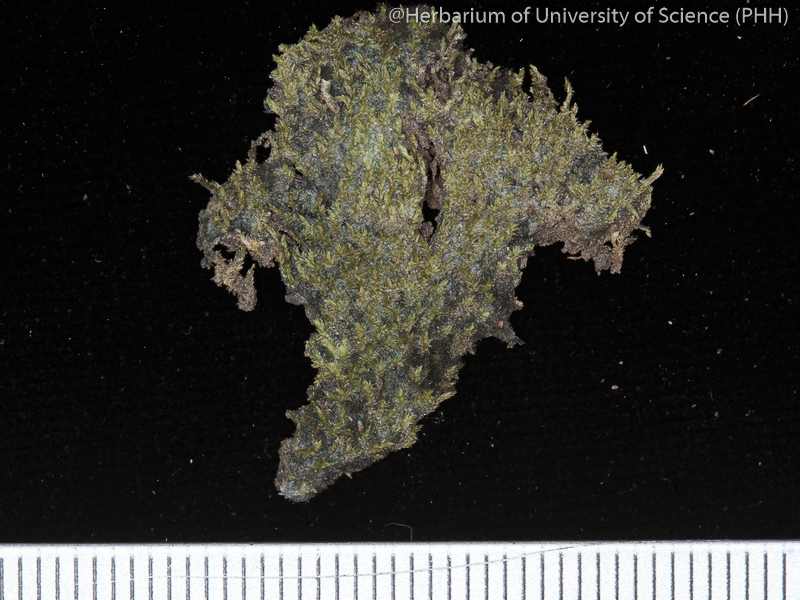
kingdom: Plantae
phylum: Bryophyta
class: Bryopsida
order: Dicranales
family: Erpodiaceae
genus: Venturiella
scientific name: Venturiella perrottetii
